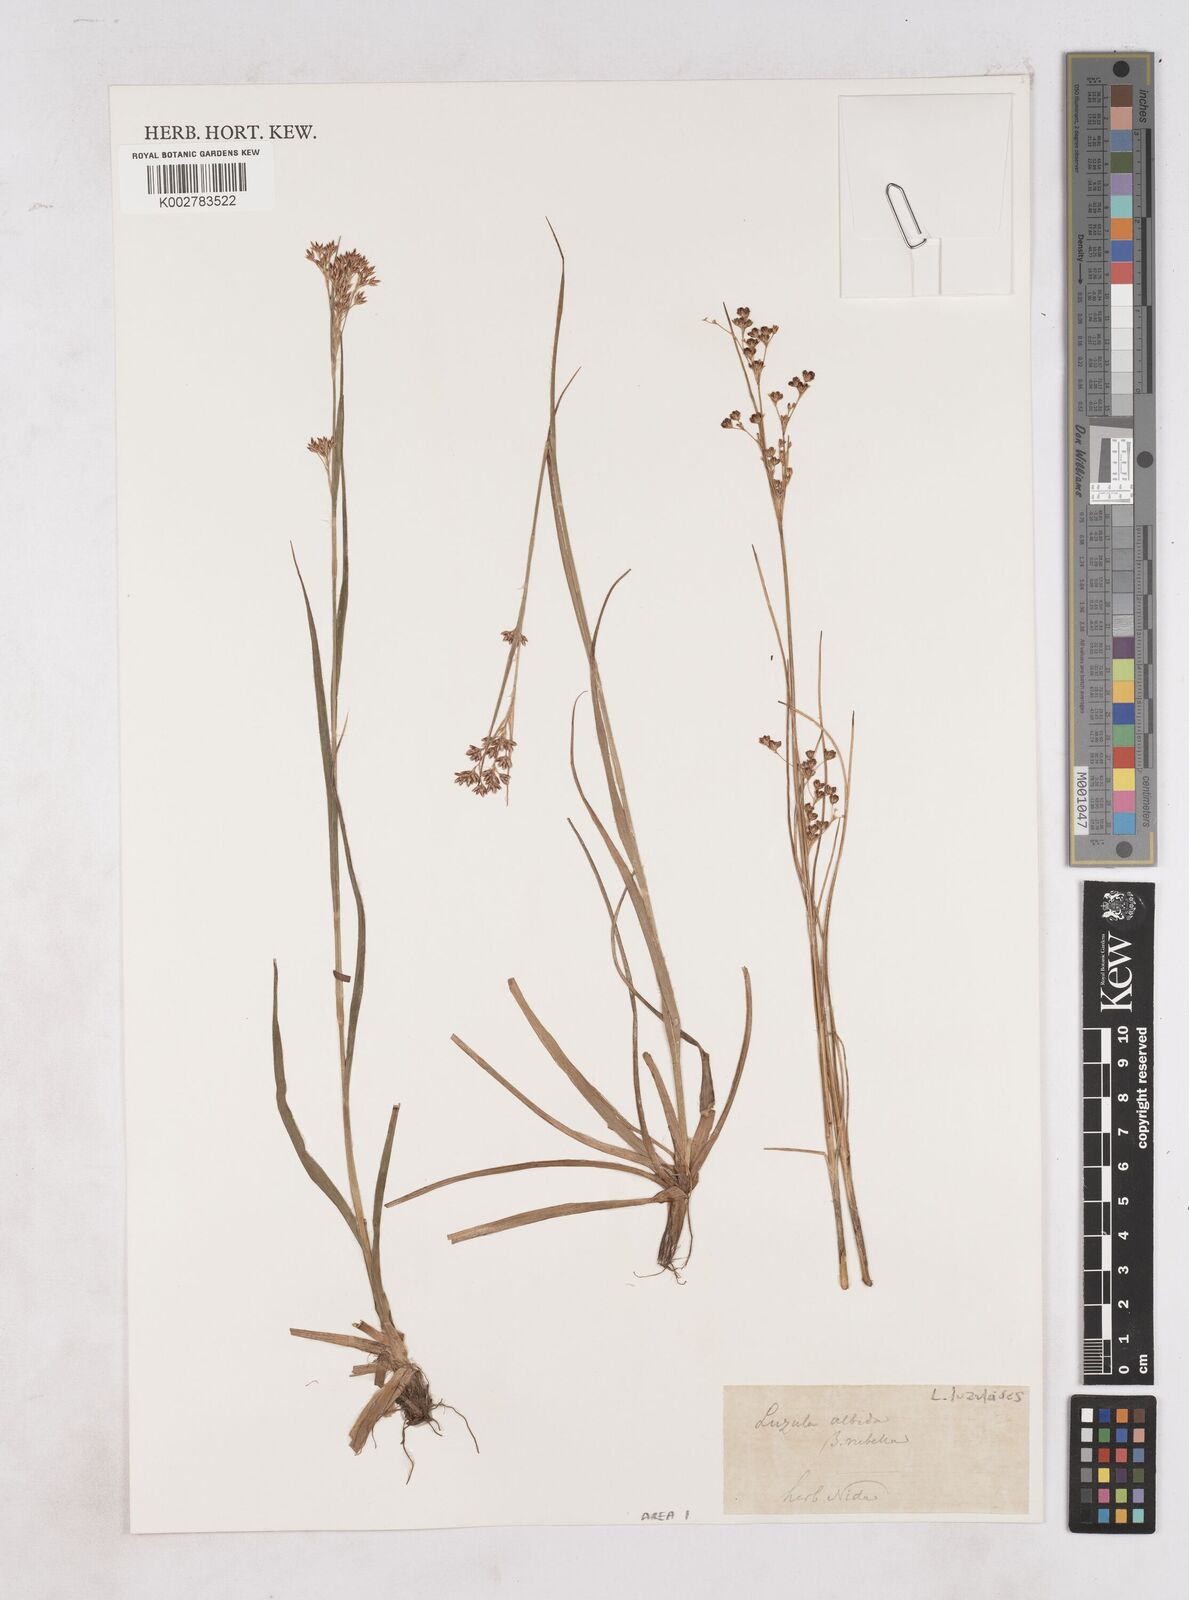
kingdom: Plantae
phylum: Tracheophyta
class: Liliopsida
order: Poales
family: Juncaceae
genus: Luzula
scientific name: Luzula luzuloides
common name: White wood-rush
